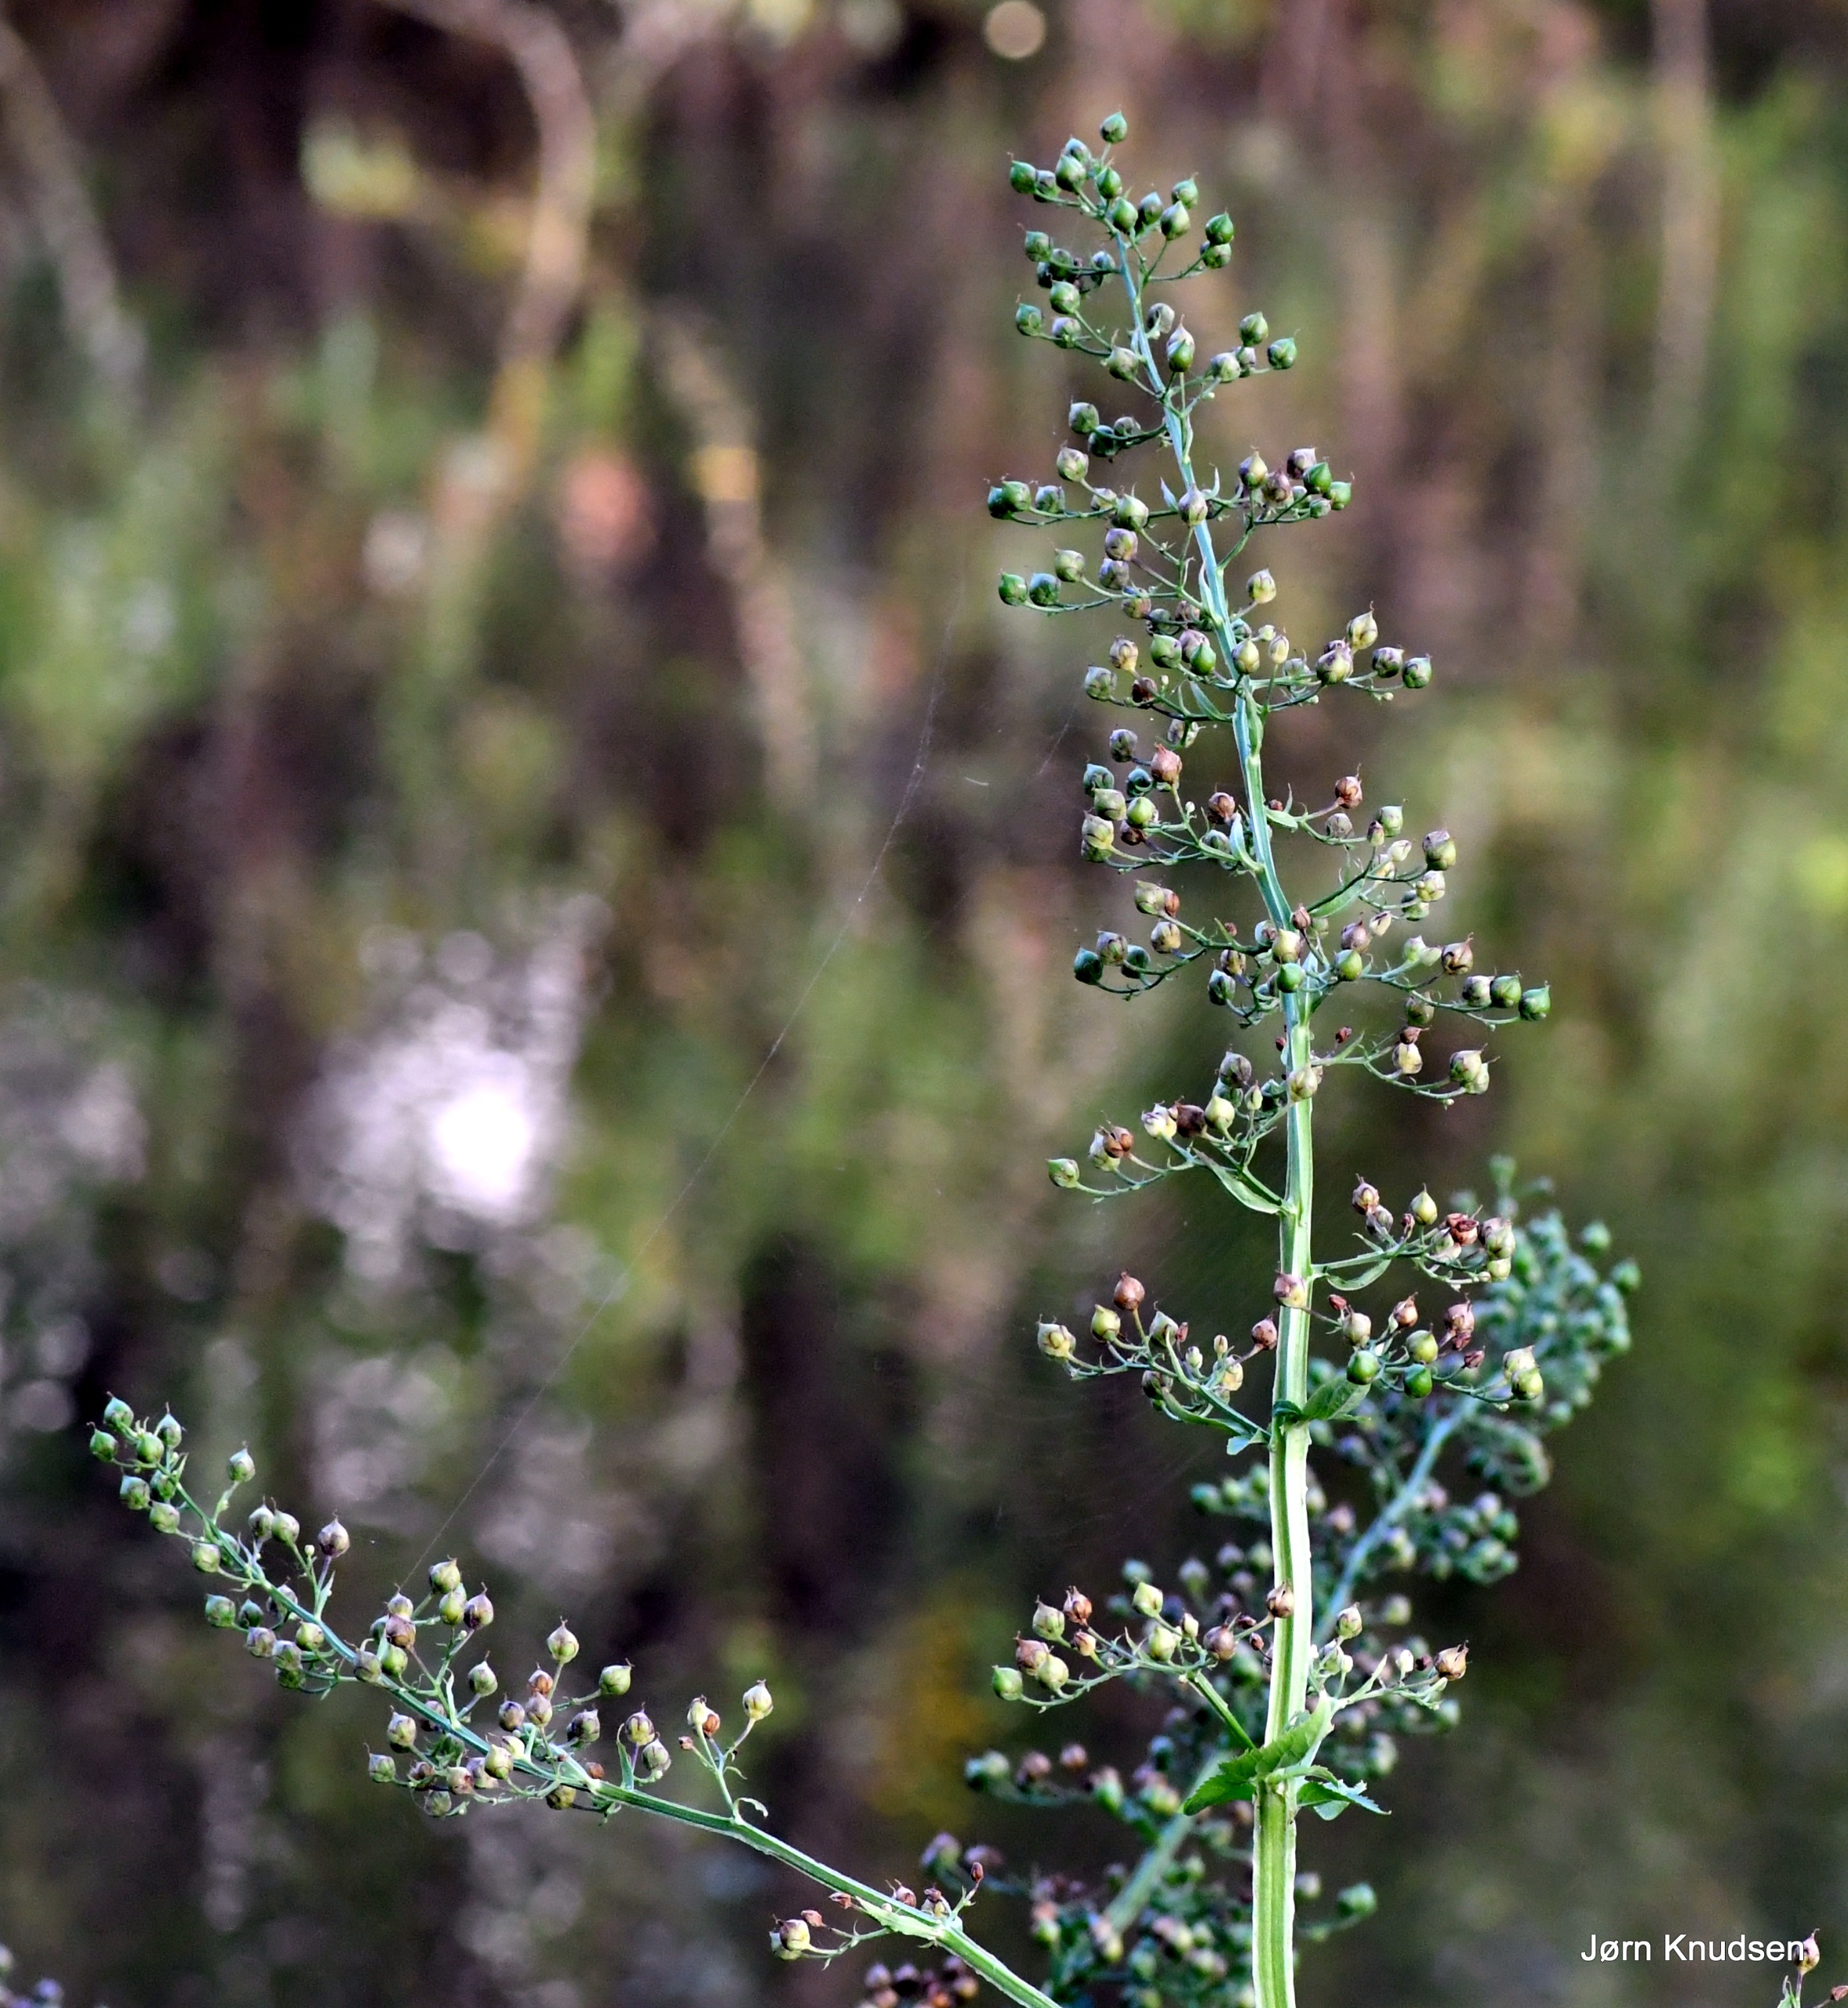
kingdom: Plantae
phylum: Tracheophyta
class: Magnoliopsida
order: Lamiales
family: Scrophulariaceae
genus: Scrophularia
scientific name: Scrophularia umbrosa
